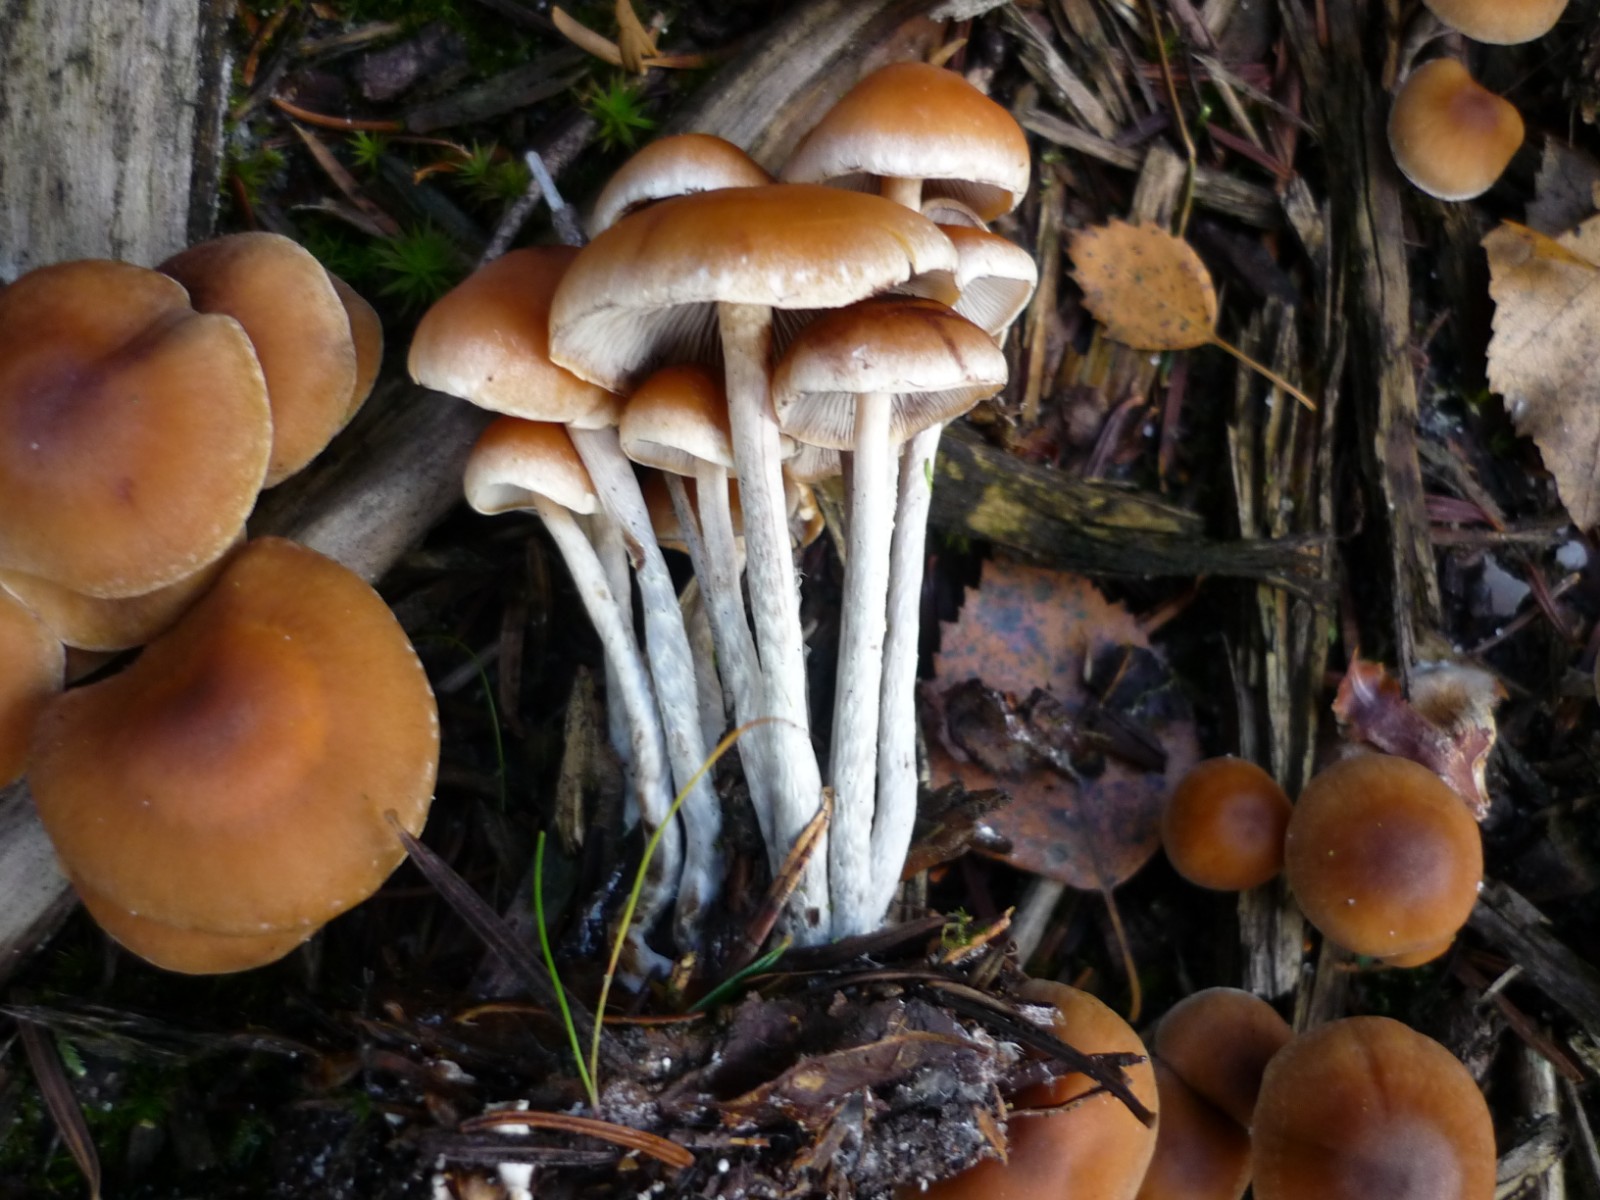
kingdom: Fungi
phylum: Basidiomycota
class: Agaricomycetes
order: Agaricales
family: Strophariaceae
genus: Hypholoma
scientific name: Hypholoma marginatum
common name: enlig svovlhat
